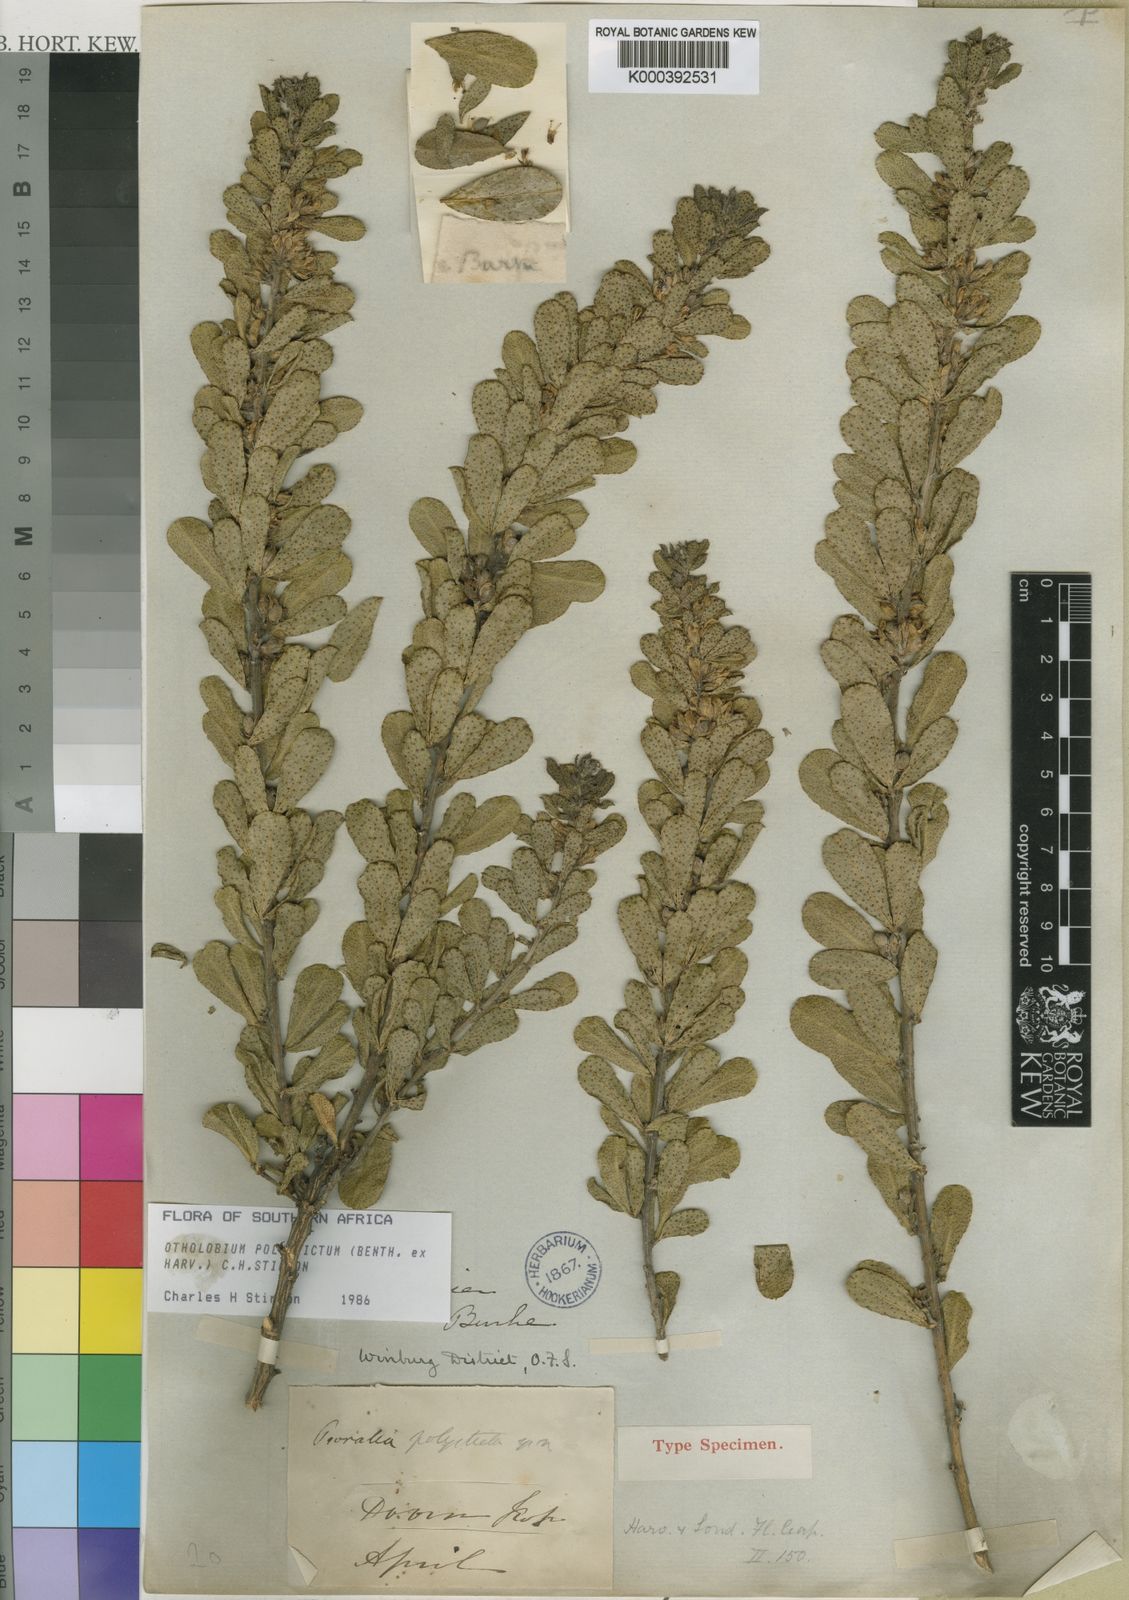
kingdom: Plantae
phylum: Tracheophyta
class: Magnoliopsida
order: Fabales
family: Fabaceae
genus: Psoralea
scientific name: Psoralea polysticta
